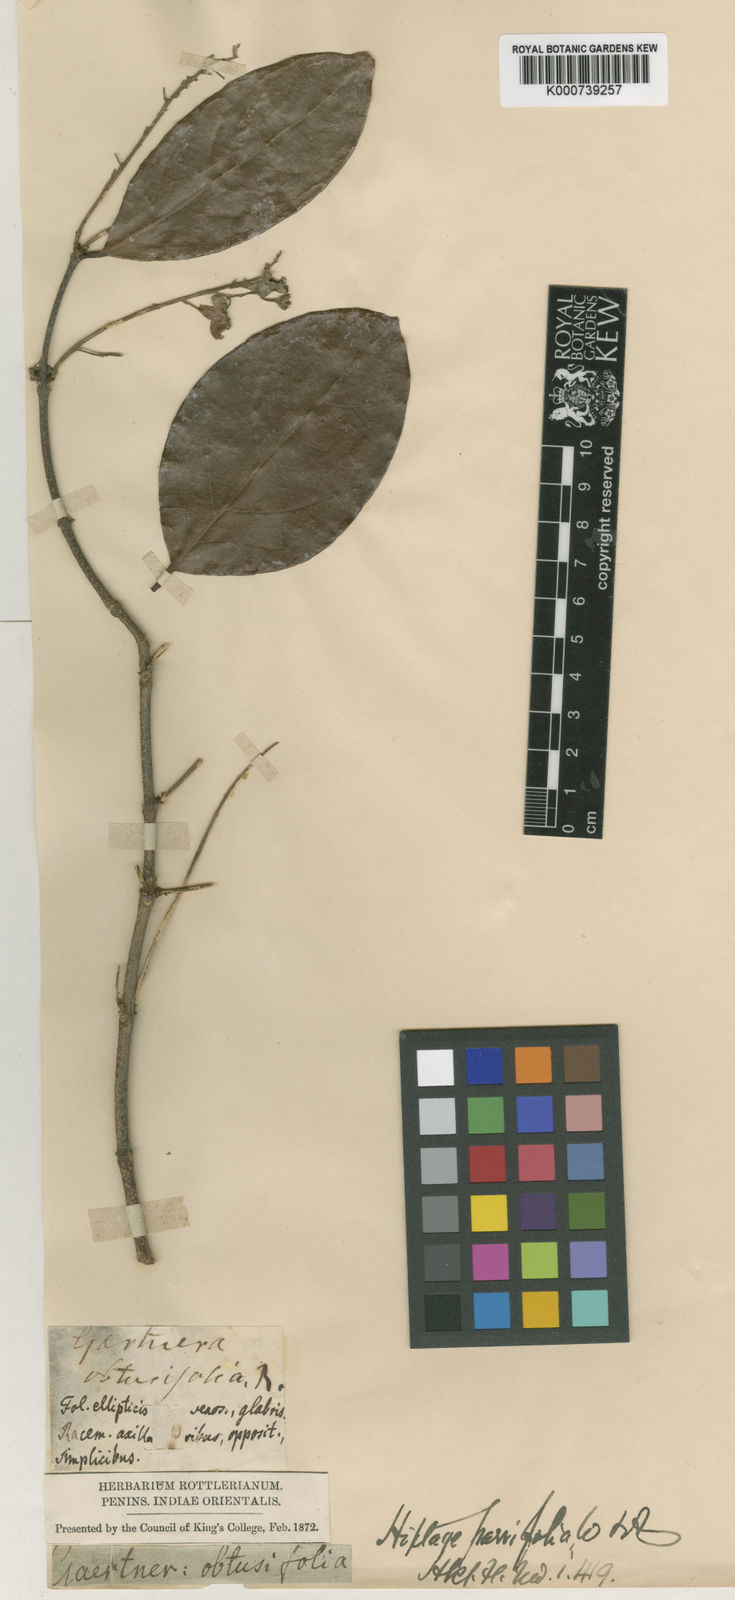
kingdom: Plantae
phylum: Tracheophyta
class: Magnoliopsida
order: Malpighiales
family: Malpighiaceae
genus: Hiptage
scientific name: Hiptage benghalensis
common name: Hiptage
